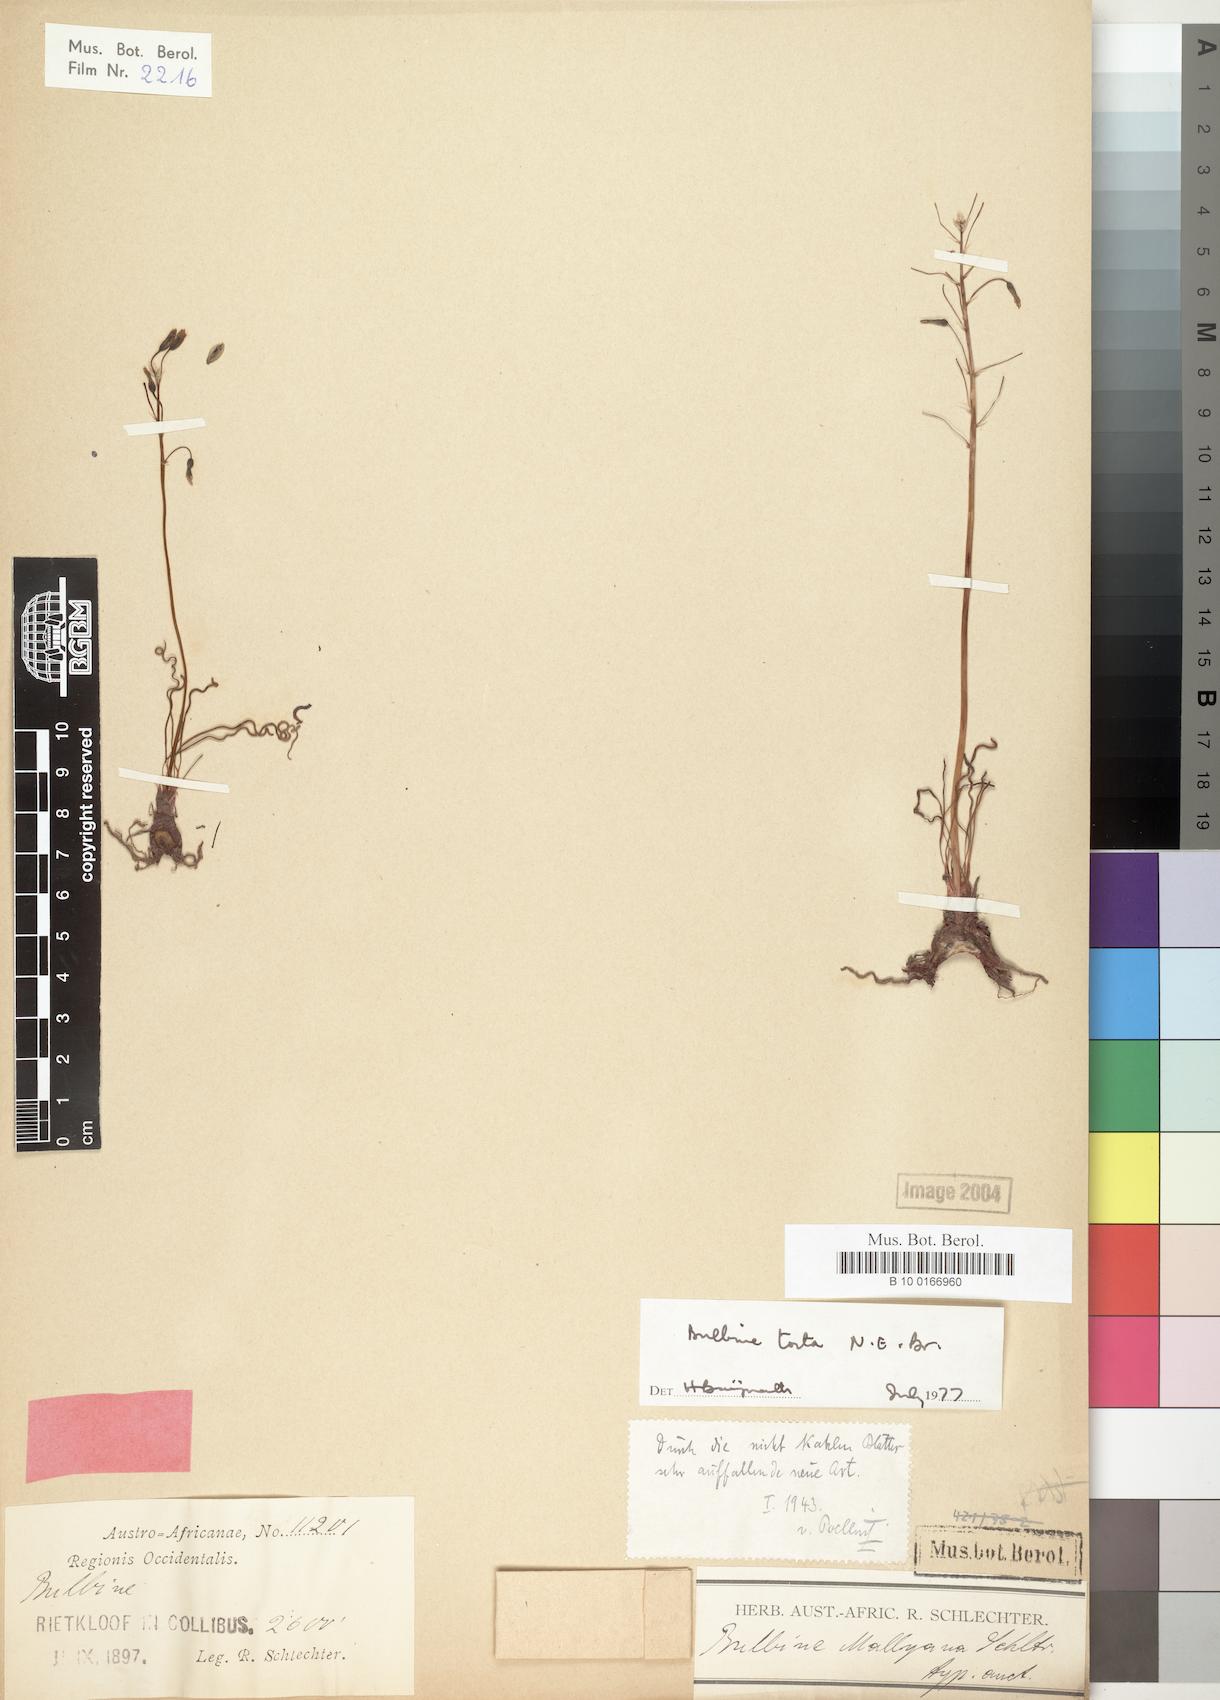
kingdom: Plantae
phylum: Tracheophyta
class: Liliopsida
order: Asparagales
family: Asphodelaceae
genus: Bulbine
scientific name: Bulbine torta
